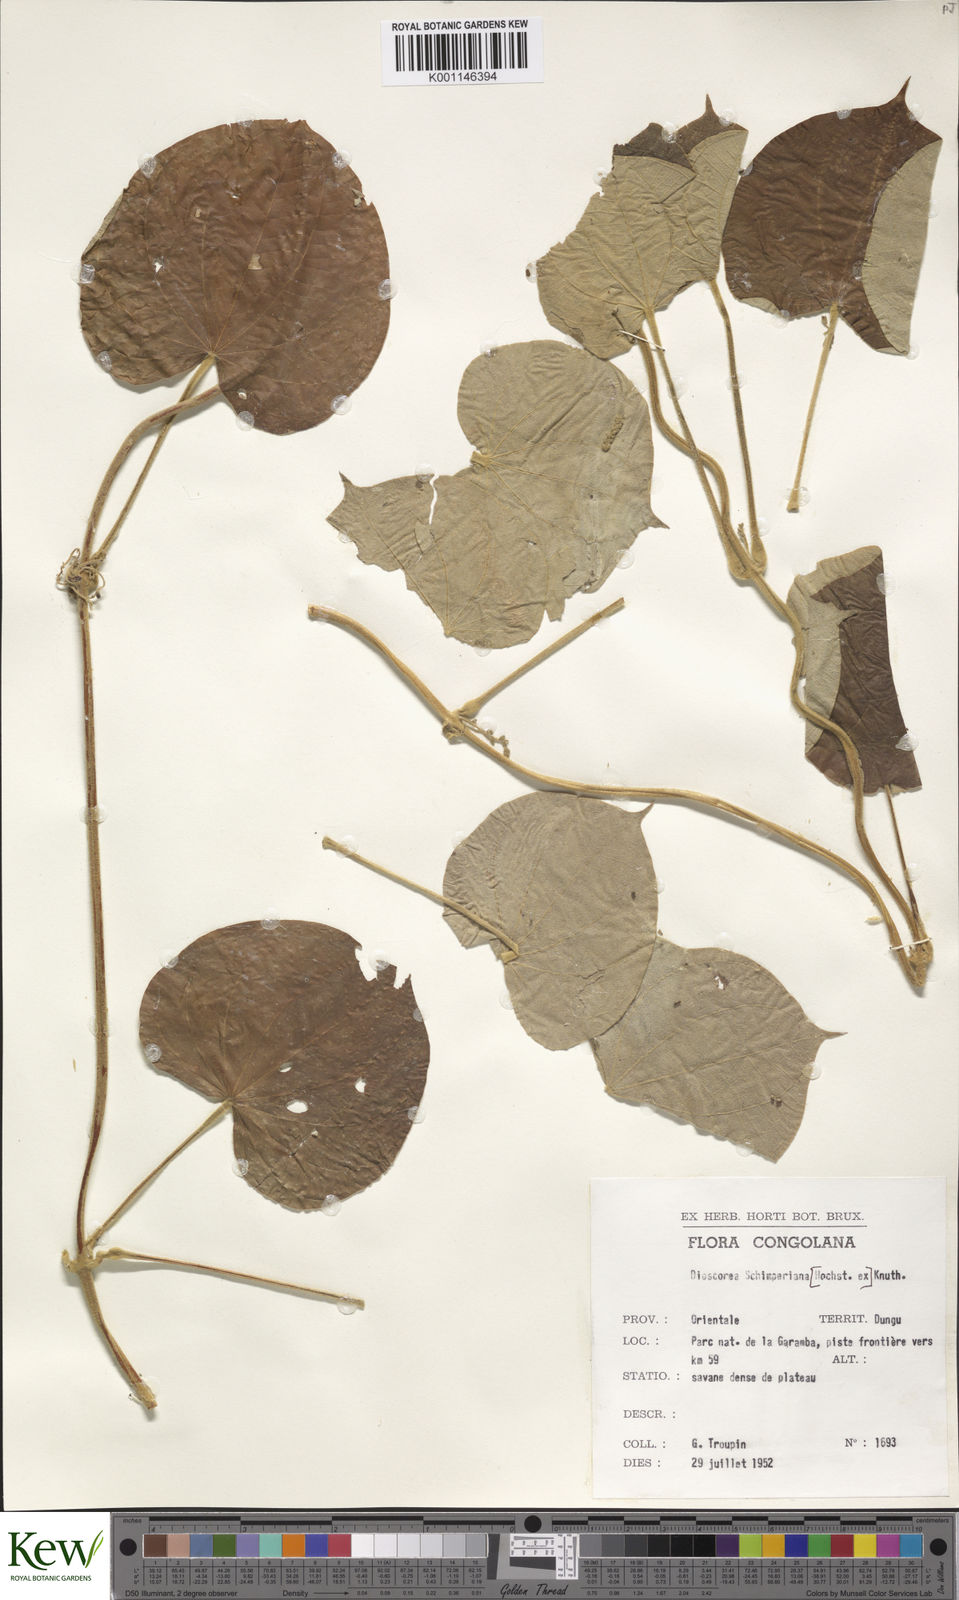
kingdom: Plantae
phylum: Tracheophyta
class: Liliopsida
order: Dioscoreales
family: Dioscoreaceae
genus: Dioscorea
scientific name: Dioscorea schimperiana
